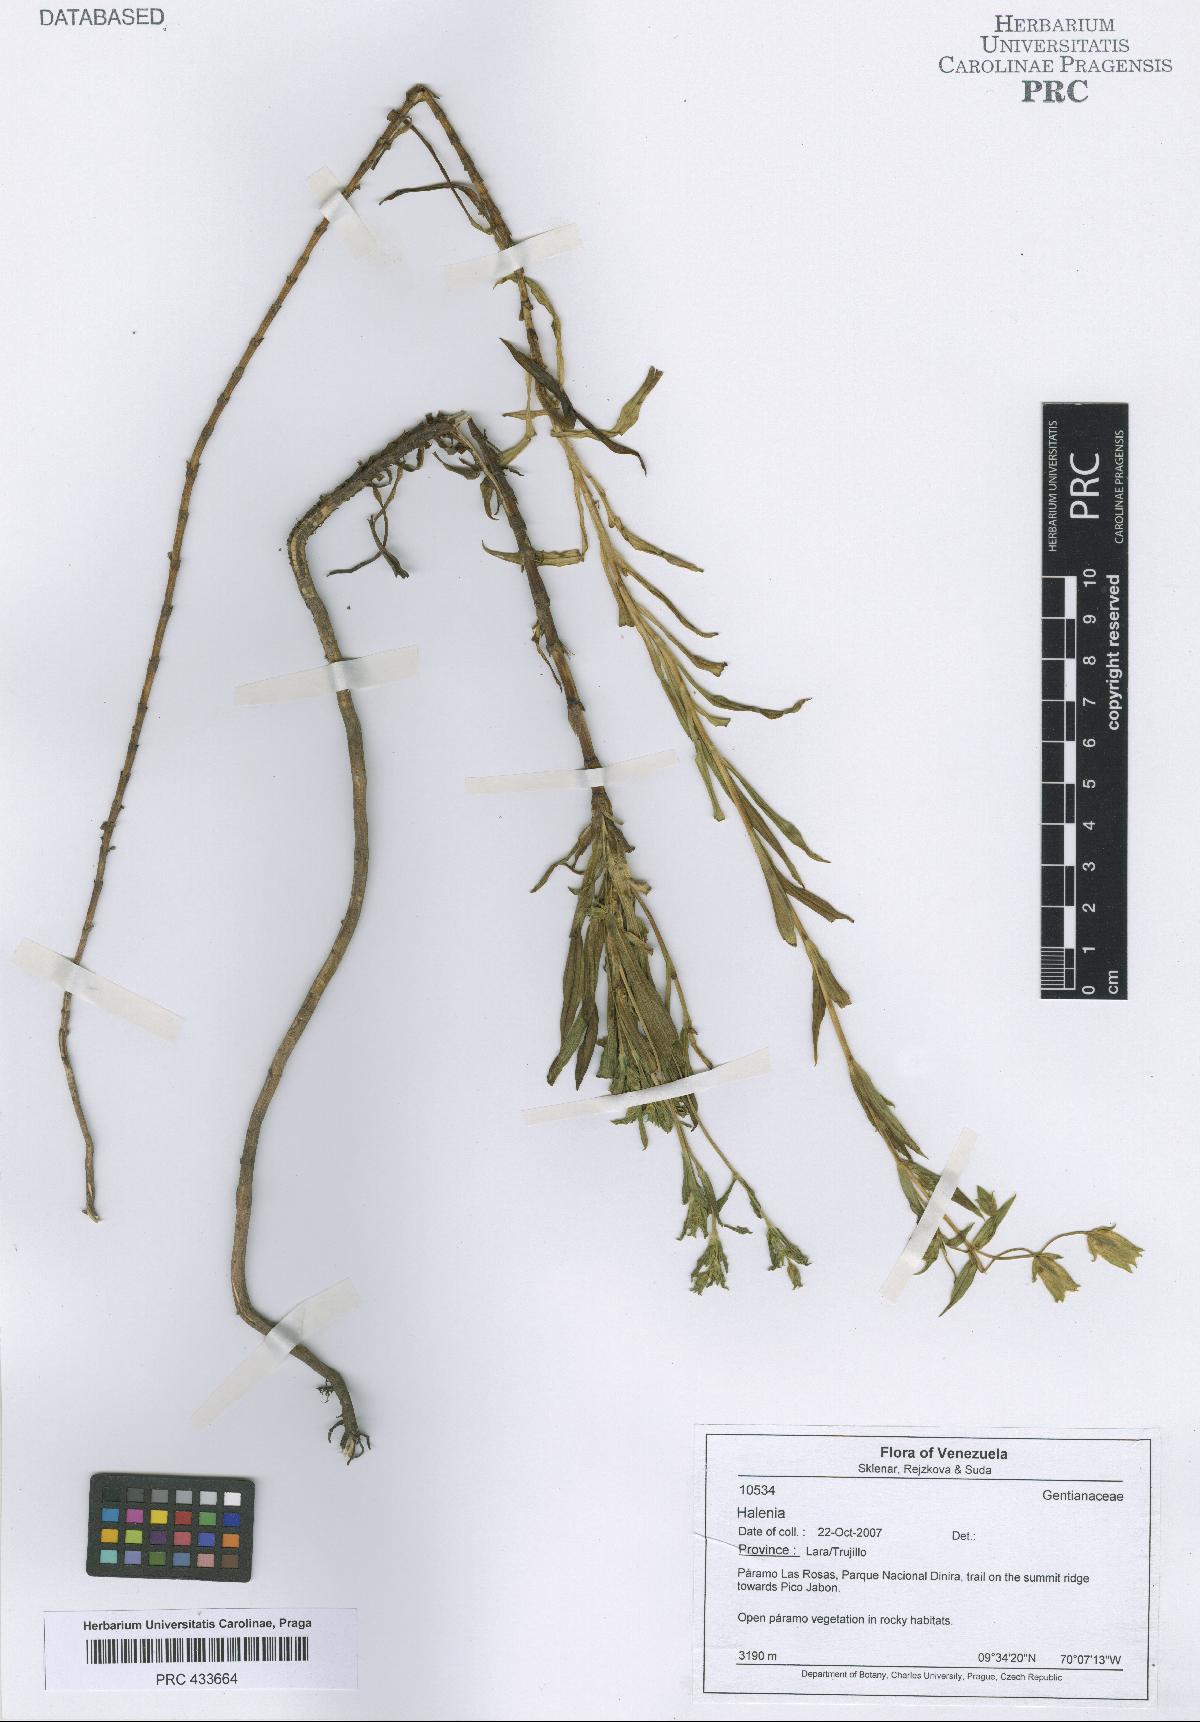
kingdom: Plantae
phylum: Tracheophyta
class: Magnoliopsida
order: Gentianales
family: Gentianaceae
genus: Halenia
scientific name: Halenia
